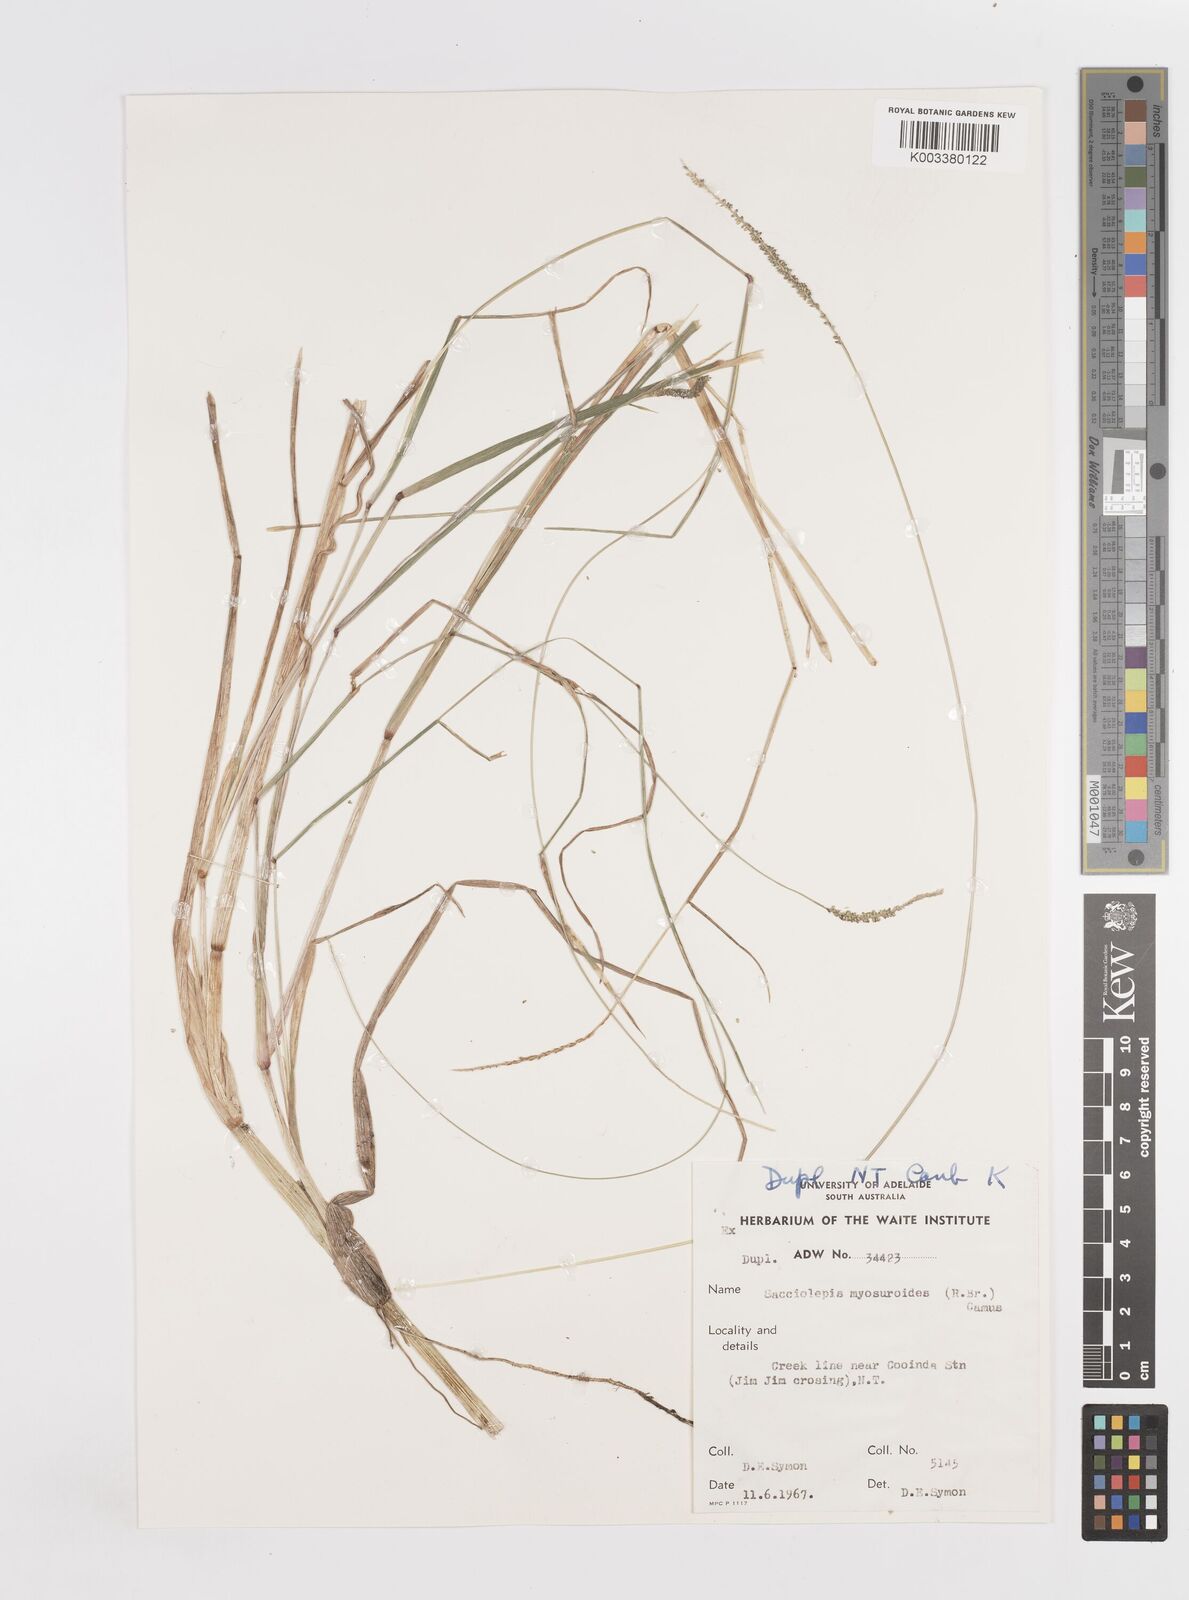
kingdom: Plantae
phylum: Tracheophyta
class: Liliopsida
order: Poales
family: Poaceae
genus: Sacciolepis
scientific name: Sacciolepis myosuroides
